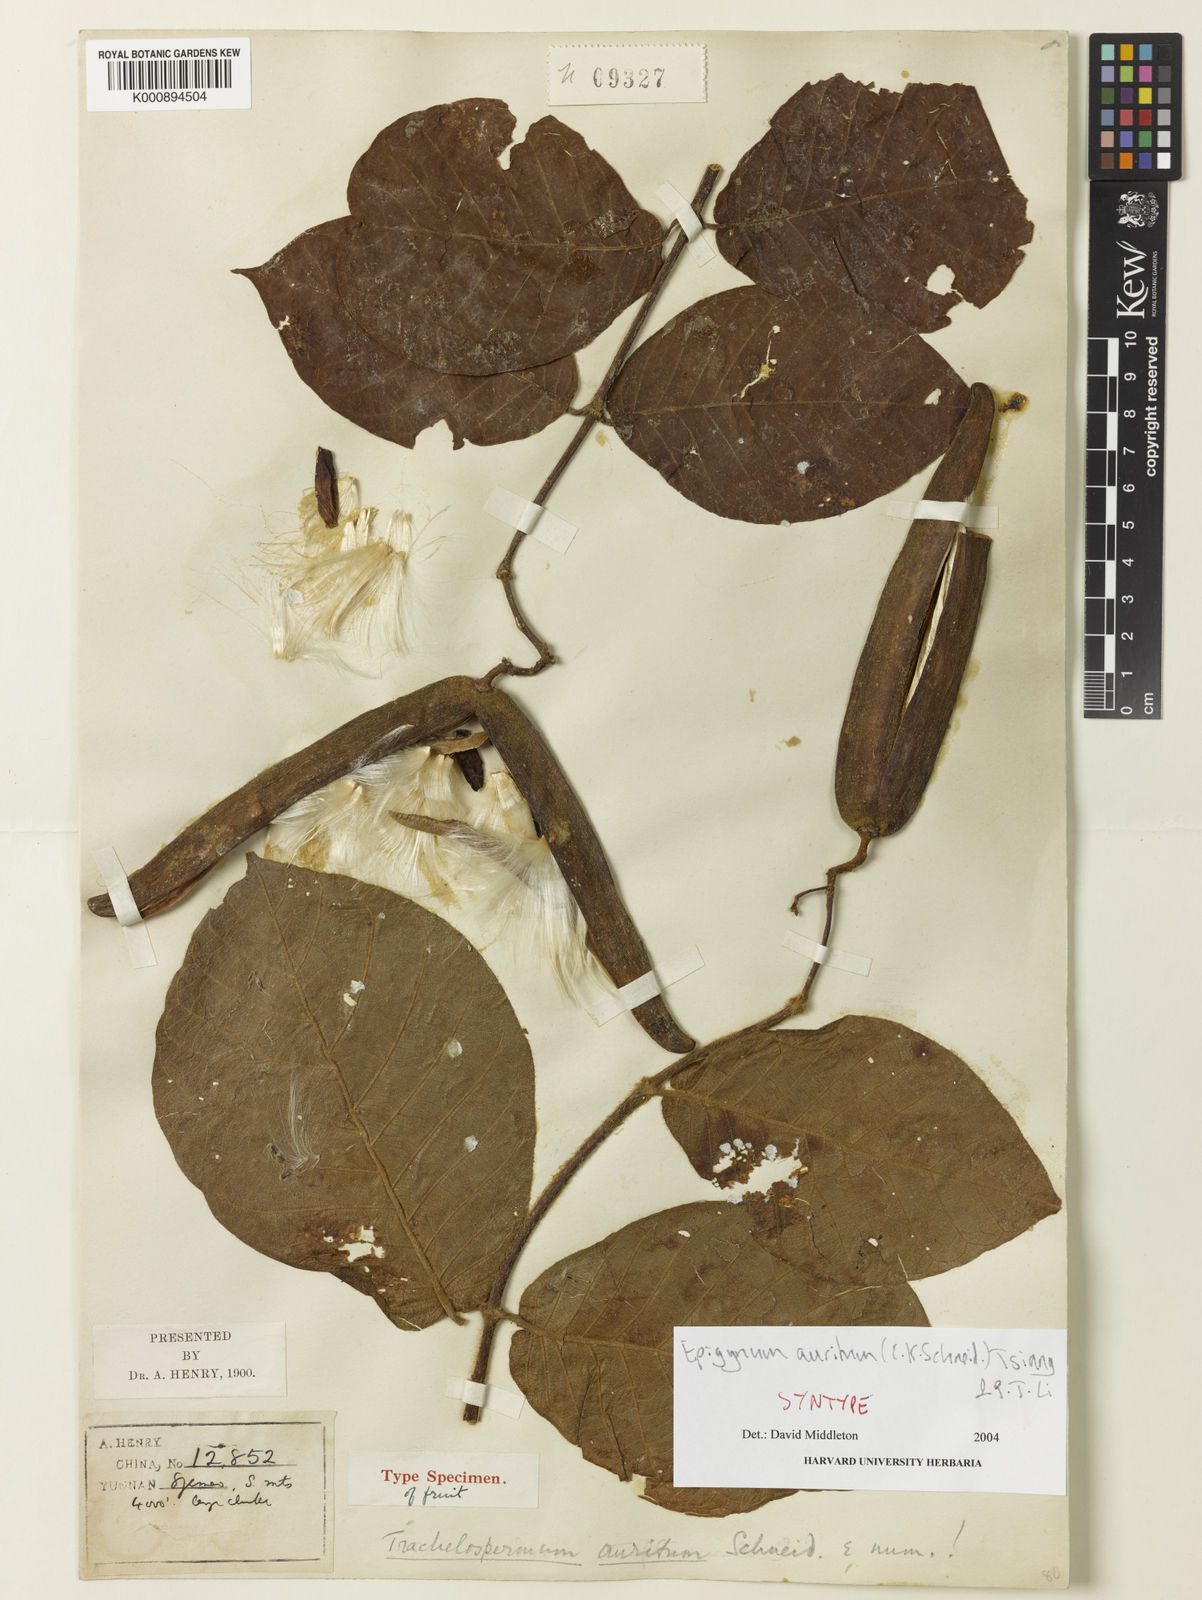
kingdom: Plantae
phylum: Tracheophyta
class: Magnoliopsida
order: Gentianales
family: Apocynaceae
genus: Epigynum
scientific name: Epigynum auritum
